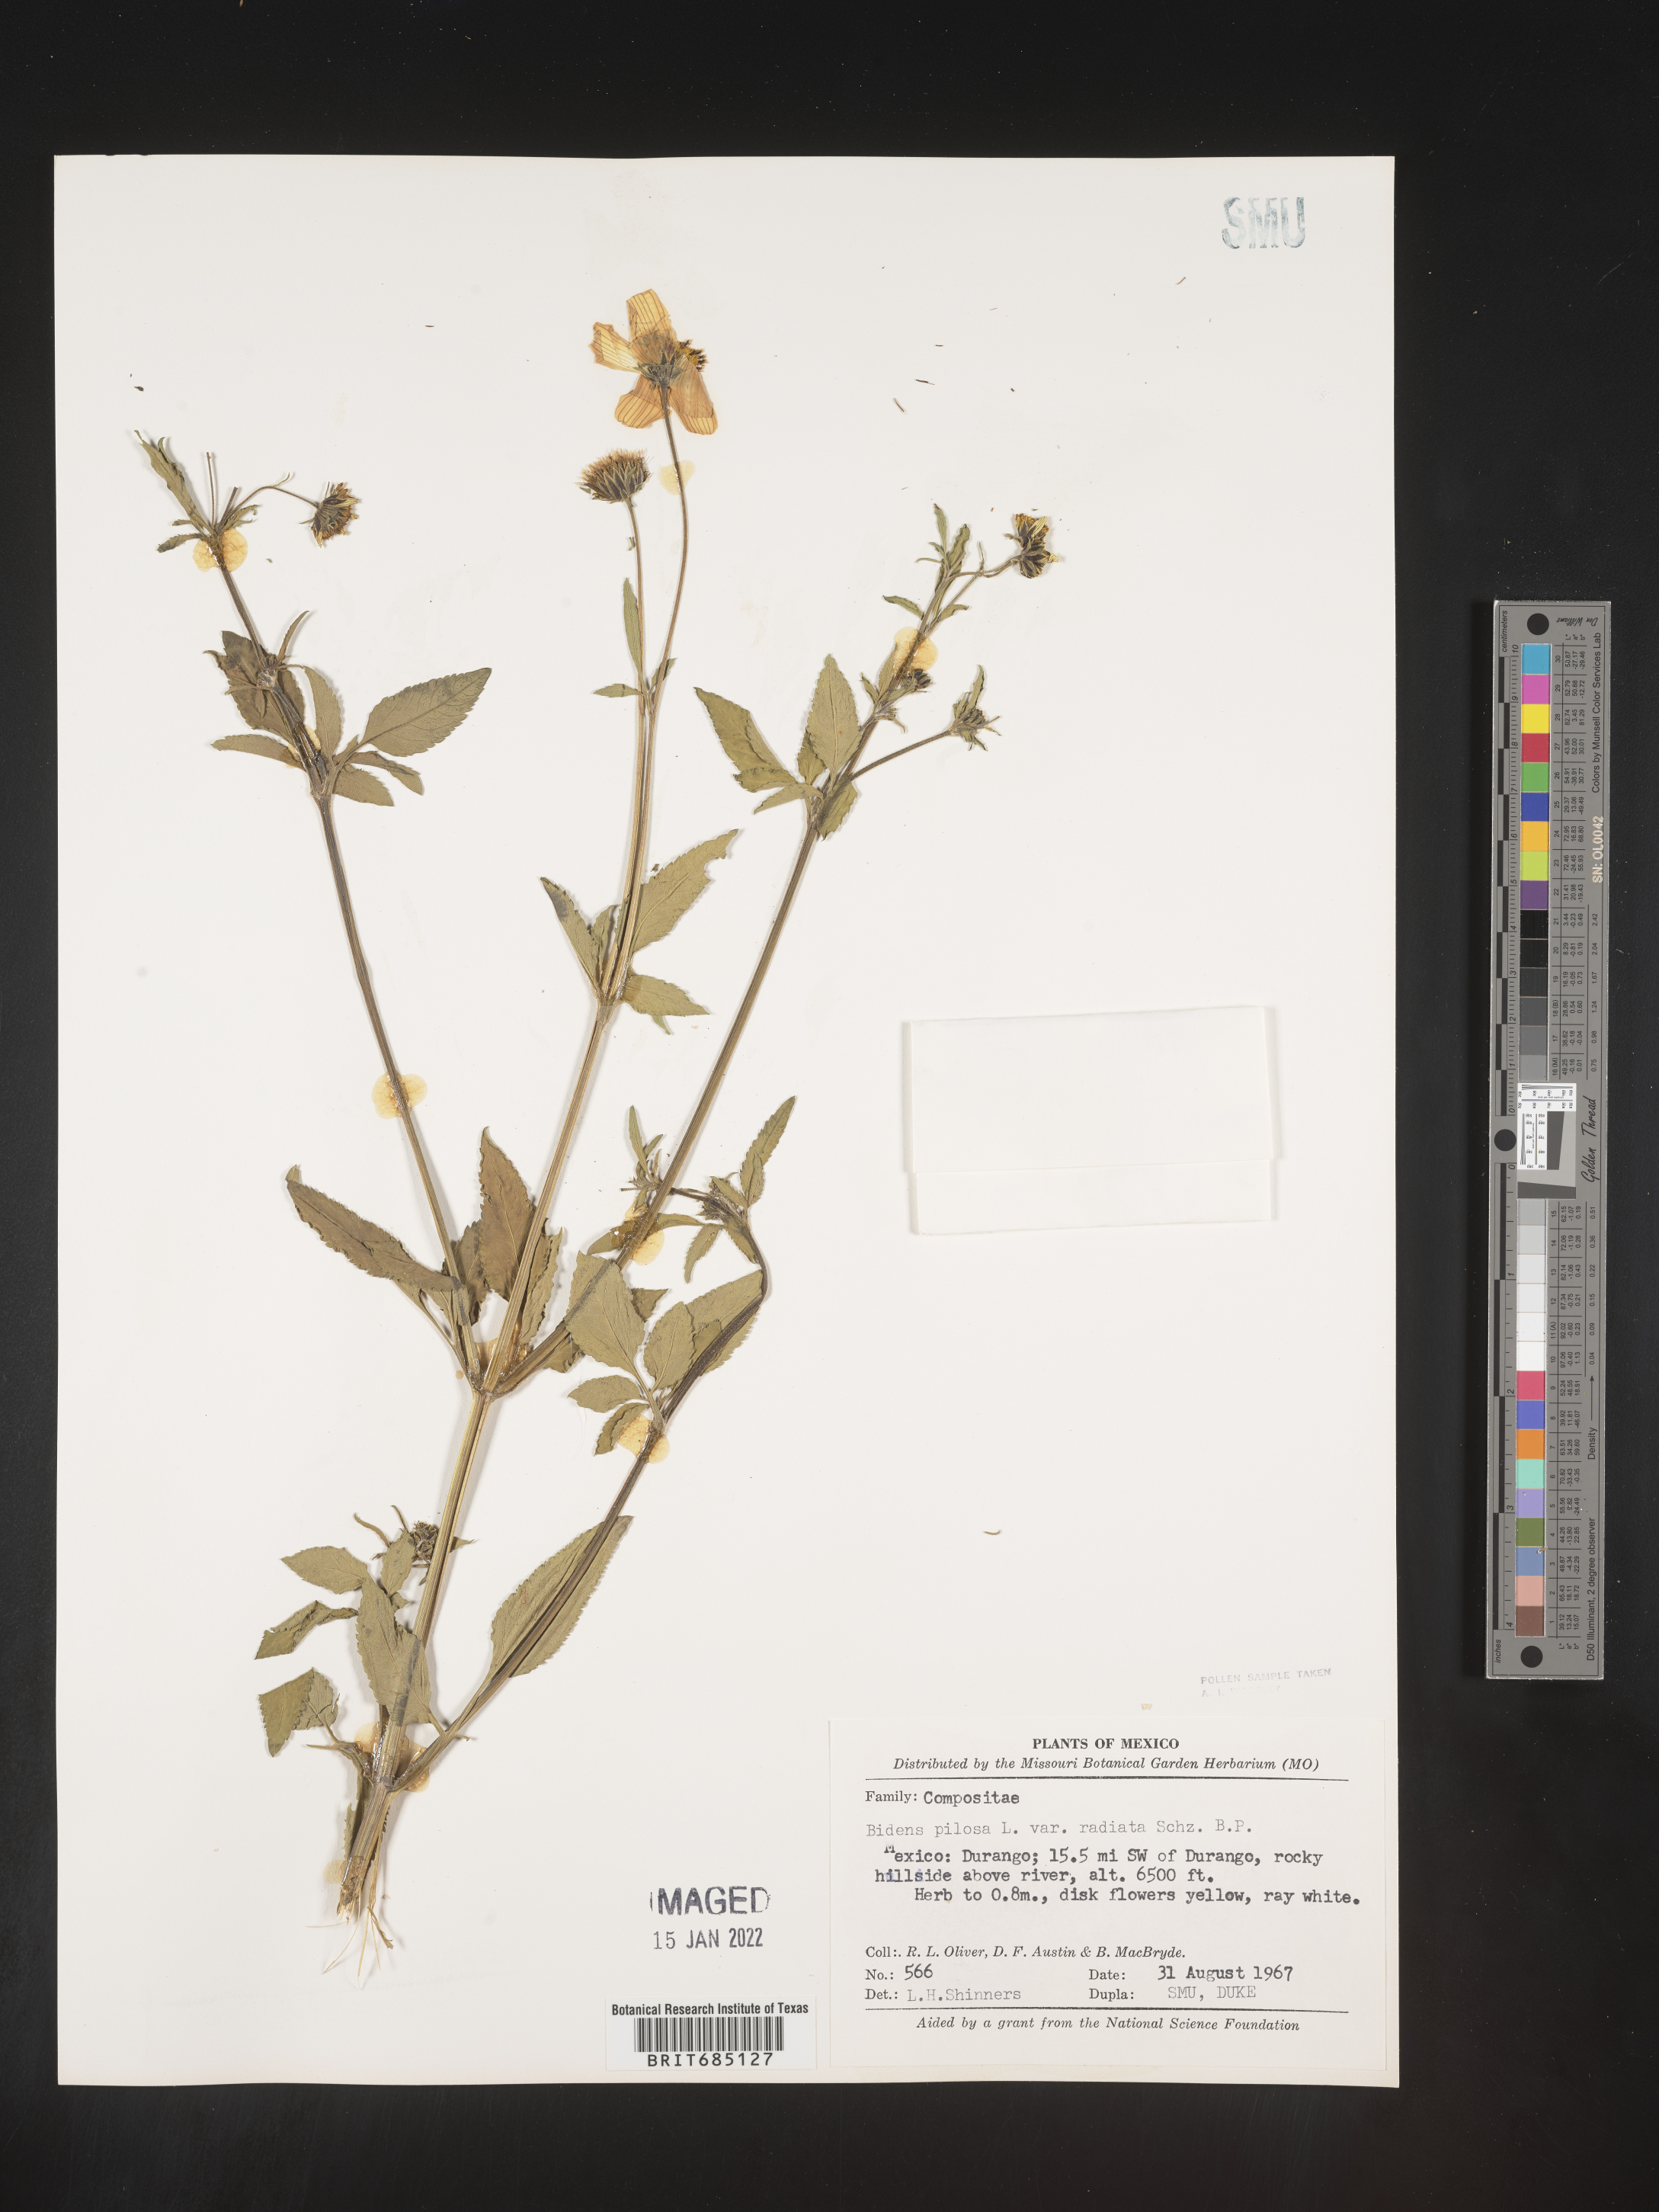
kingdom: Plantae
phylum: Tracheophyta
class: Magnoliopsida
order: Asterales
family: Asteraceae
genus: Bidens
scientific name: Bidens
